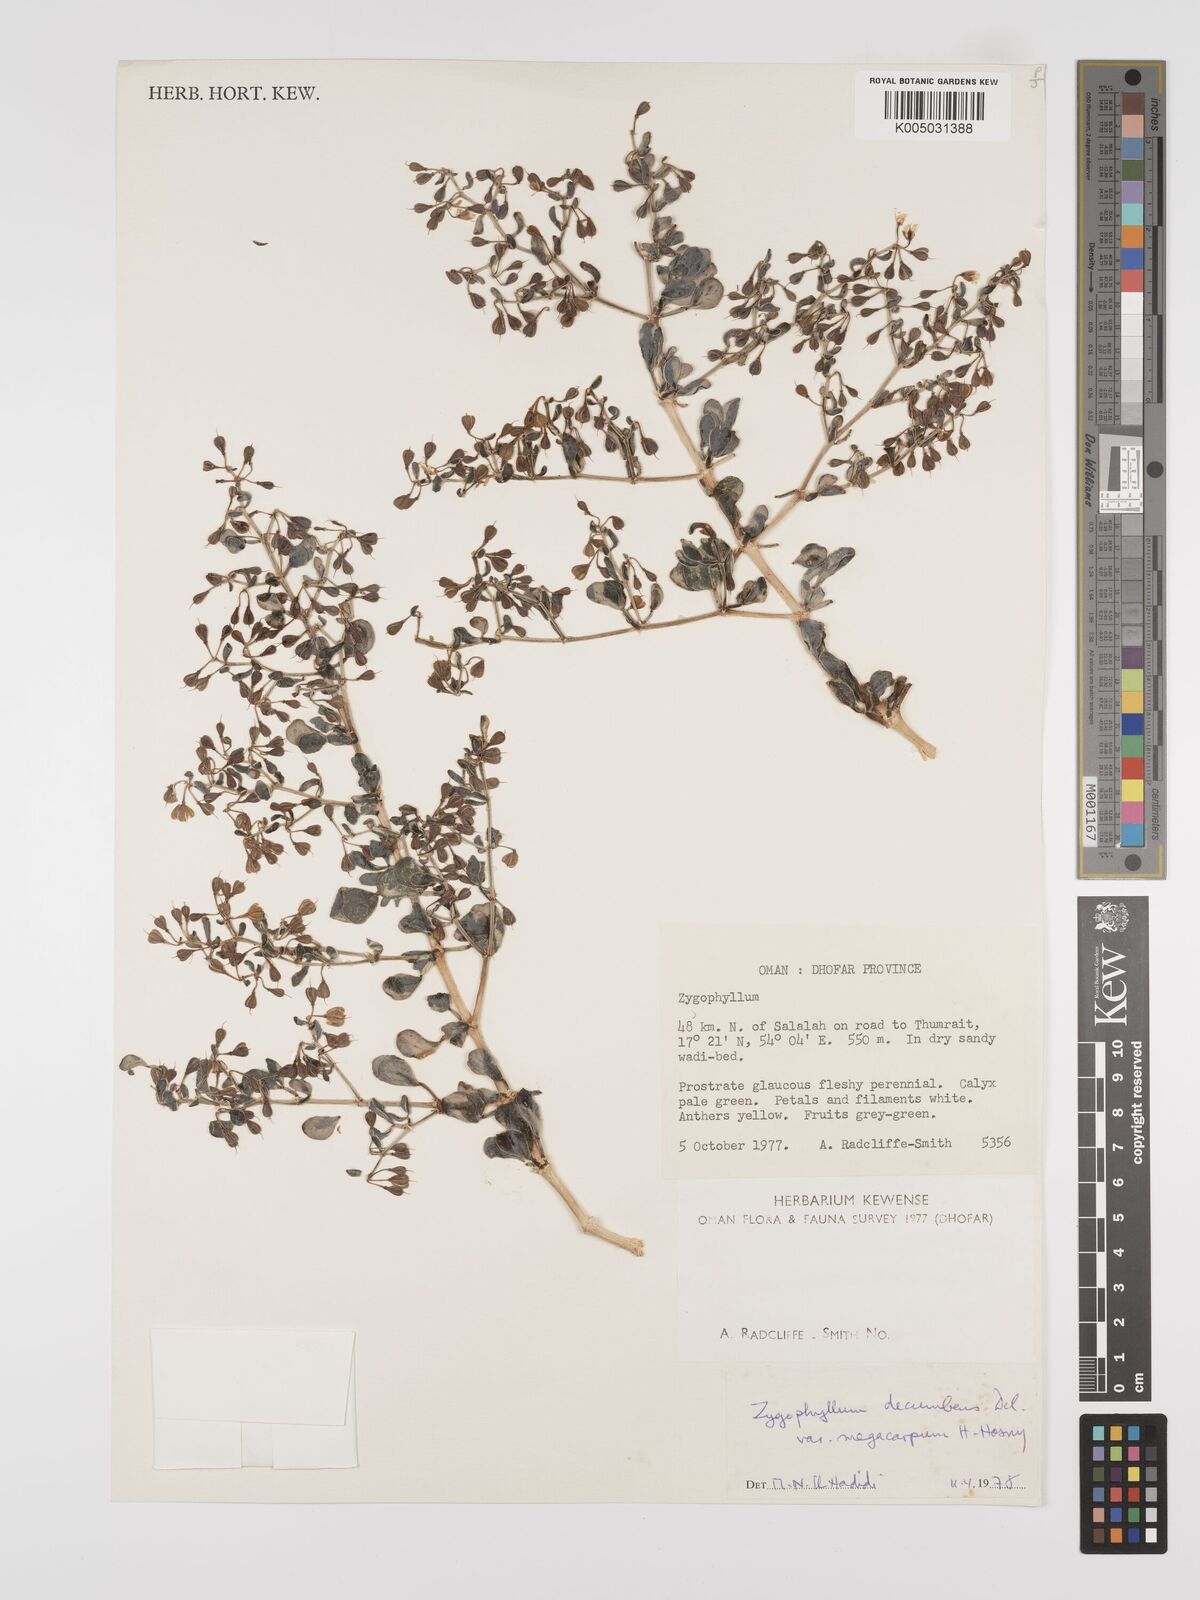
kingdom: Plantae
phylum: Tracheophyta
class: Magnoliopsida
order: Zygophyllales
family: Zygophyllaceae
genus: Tetraena
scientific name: Tetraena decumbens
